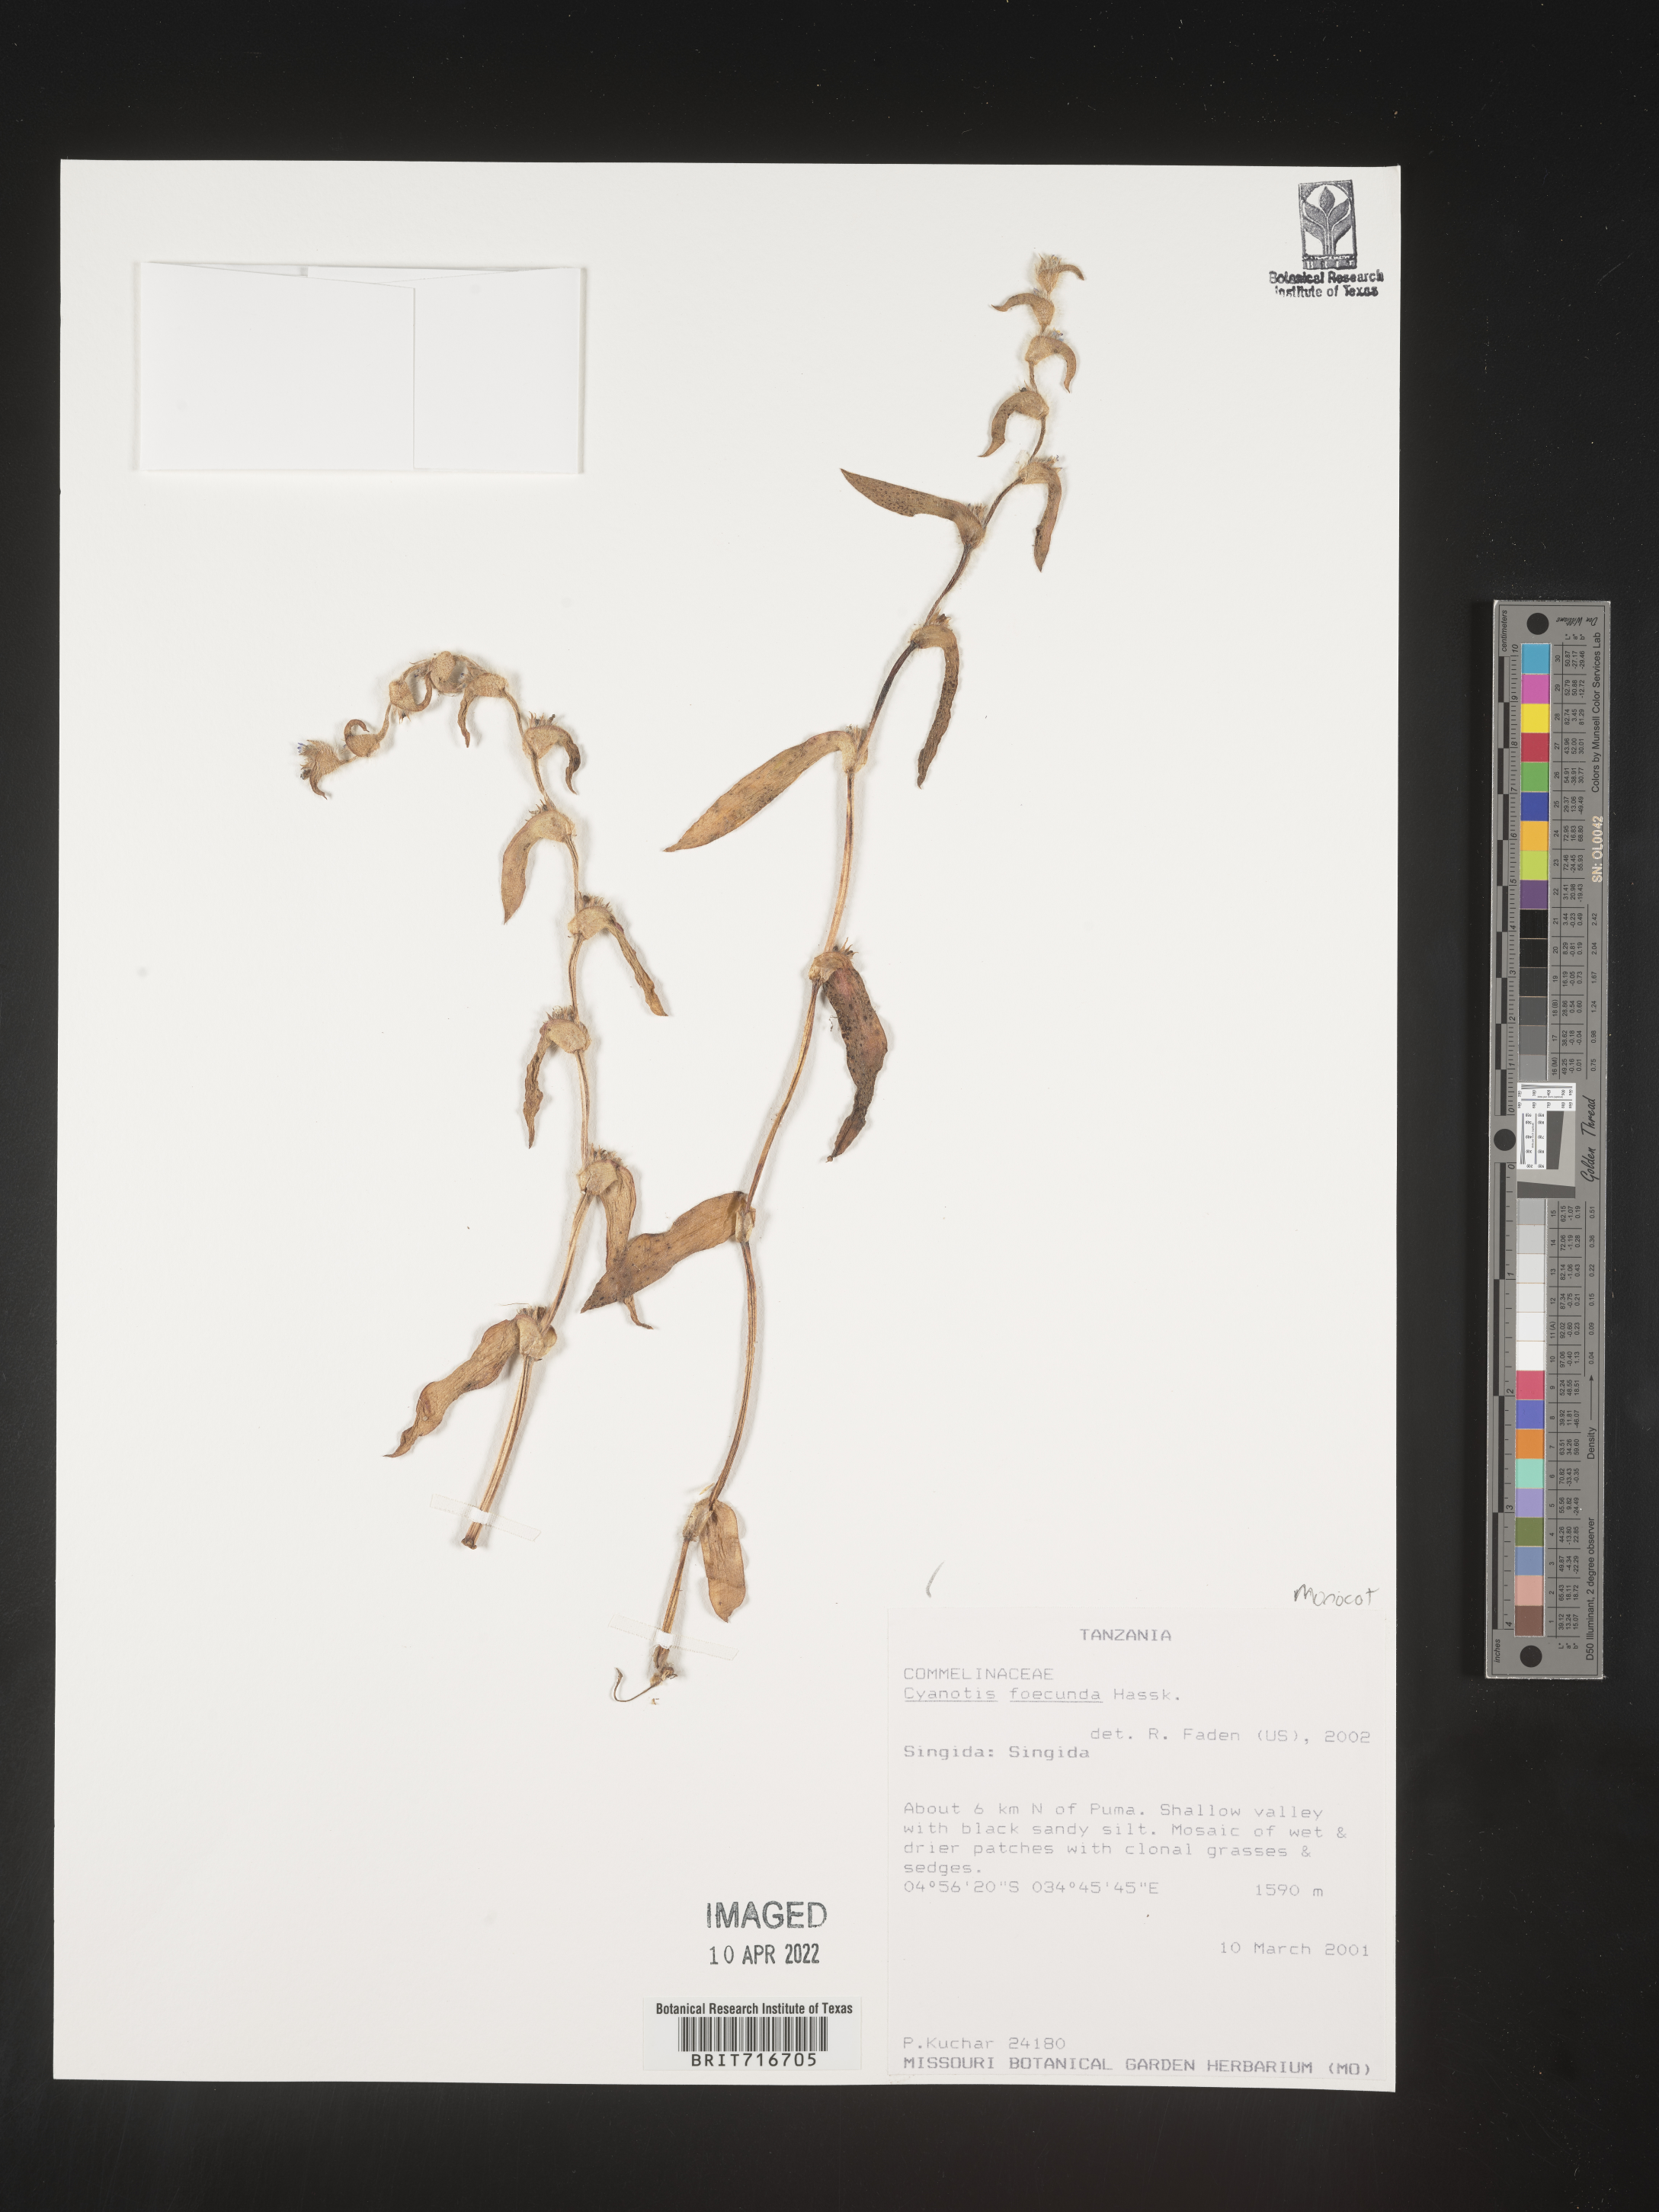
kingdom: Plantae
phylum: Tracheophyta
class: Liliopsida
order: Commelinales
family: Commelinaceae
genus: Cyanotis
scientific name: Cyanotis
